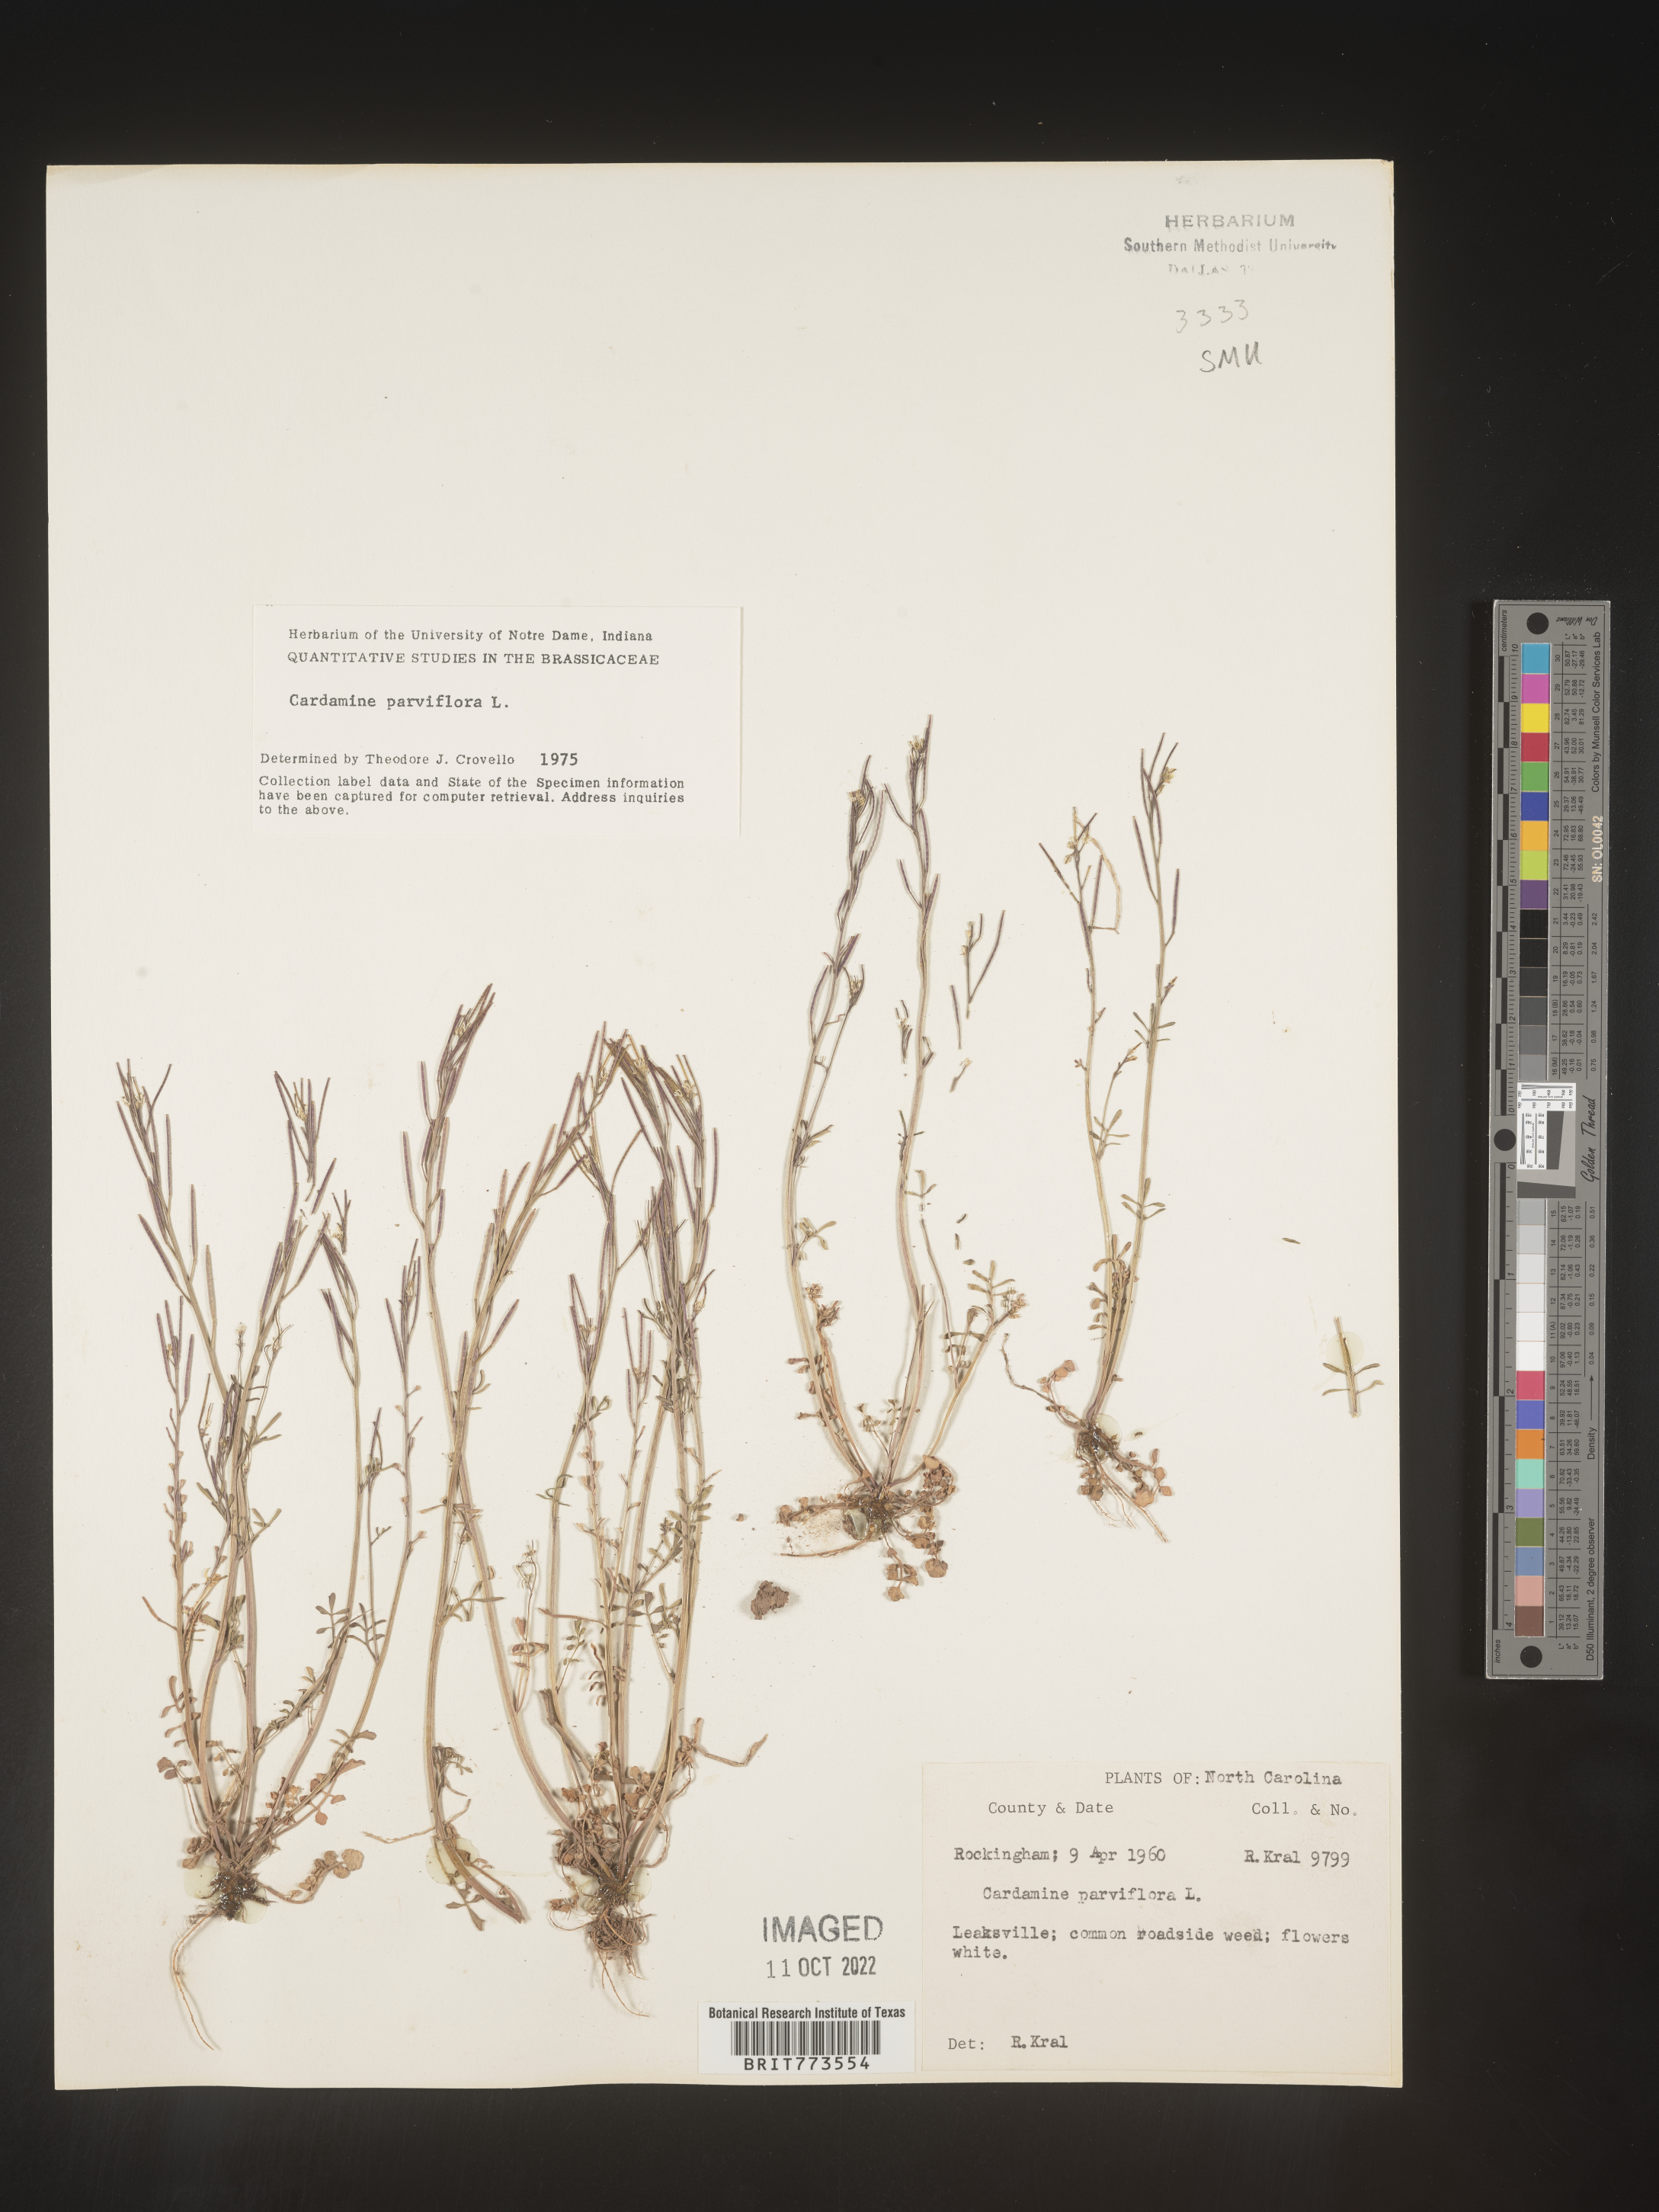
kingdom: Plantae
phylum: Tracheophyta
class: Magnoliopsida
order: Brassicales
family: Brassicaceae
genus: Cardamine
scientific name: Cardamine parviflora
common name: Sand bittercress
